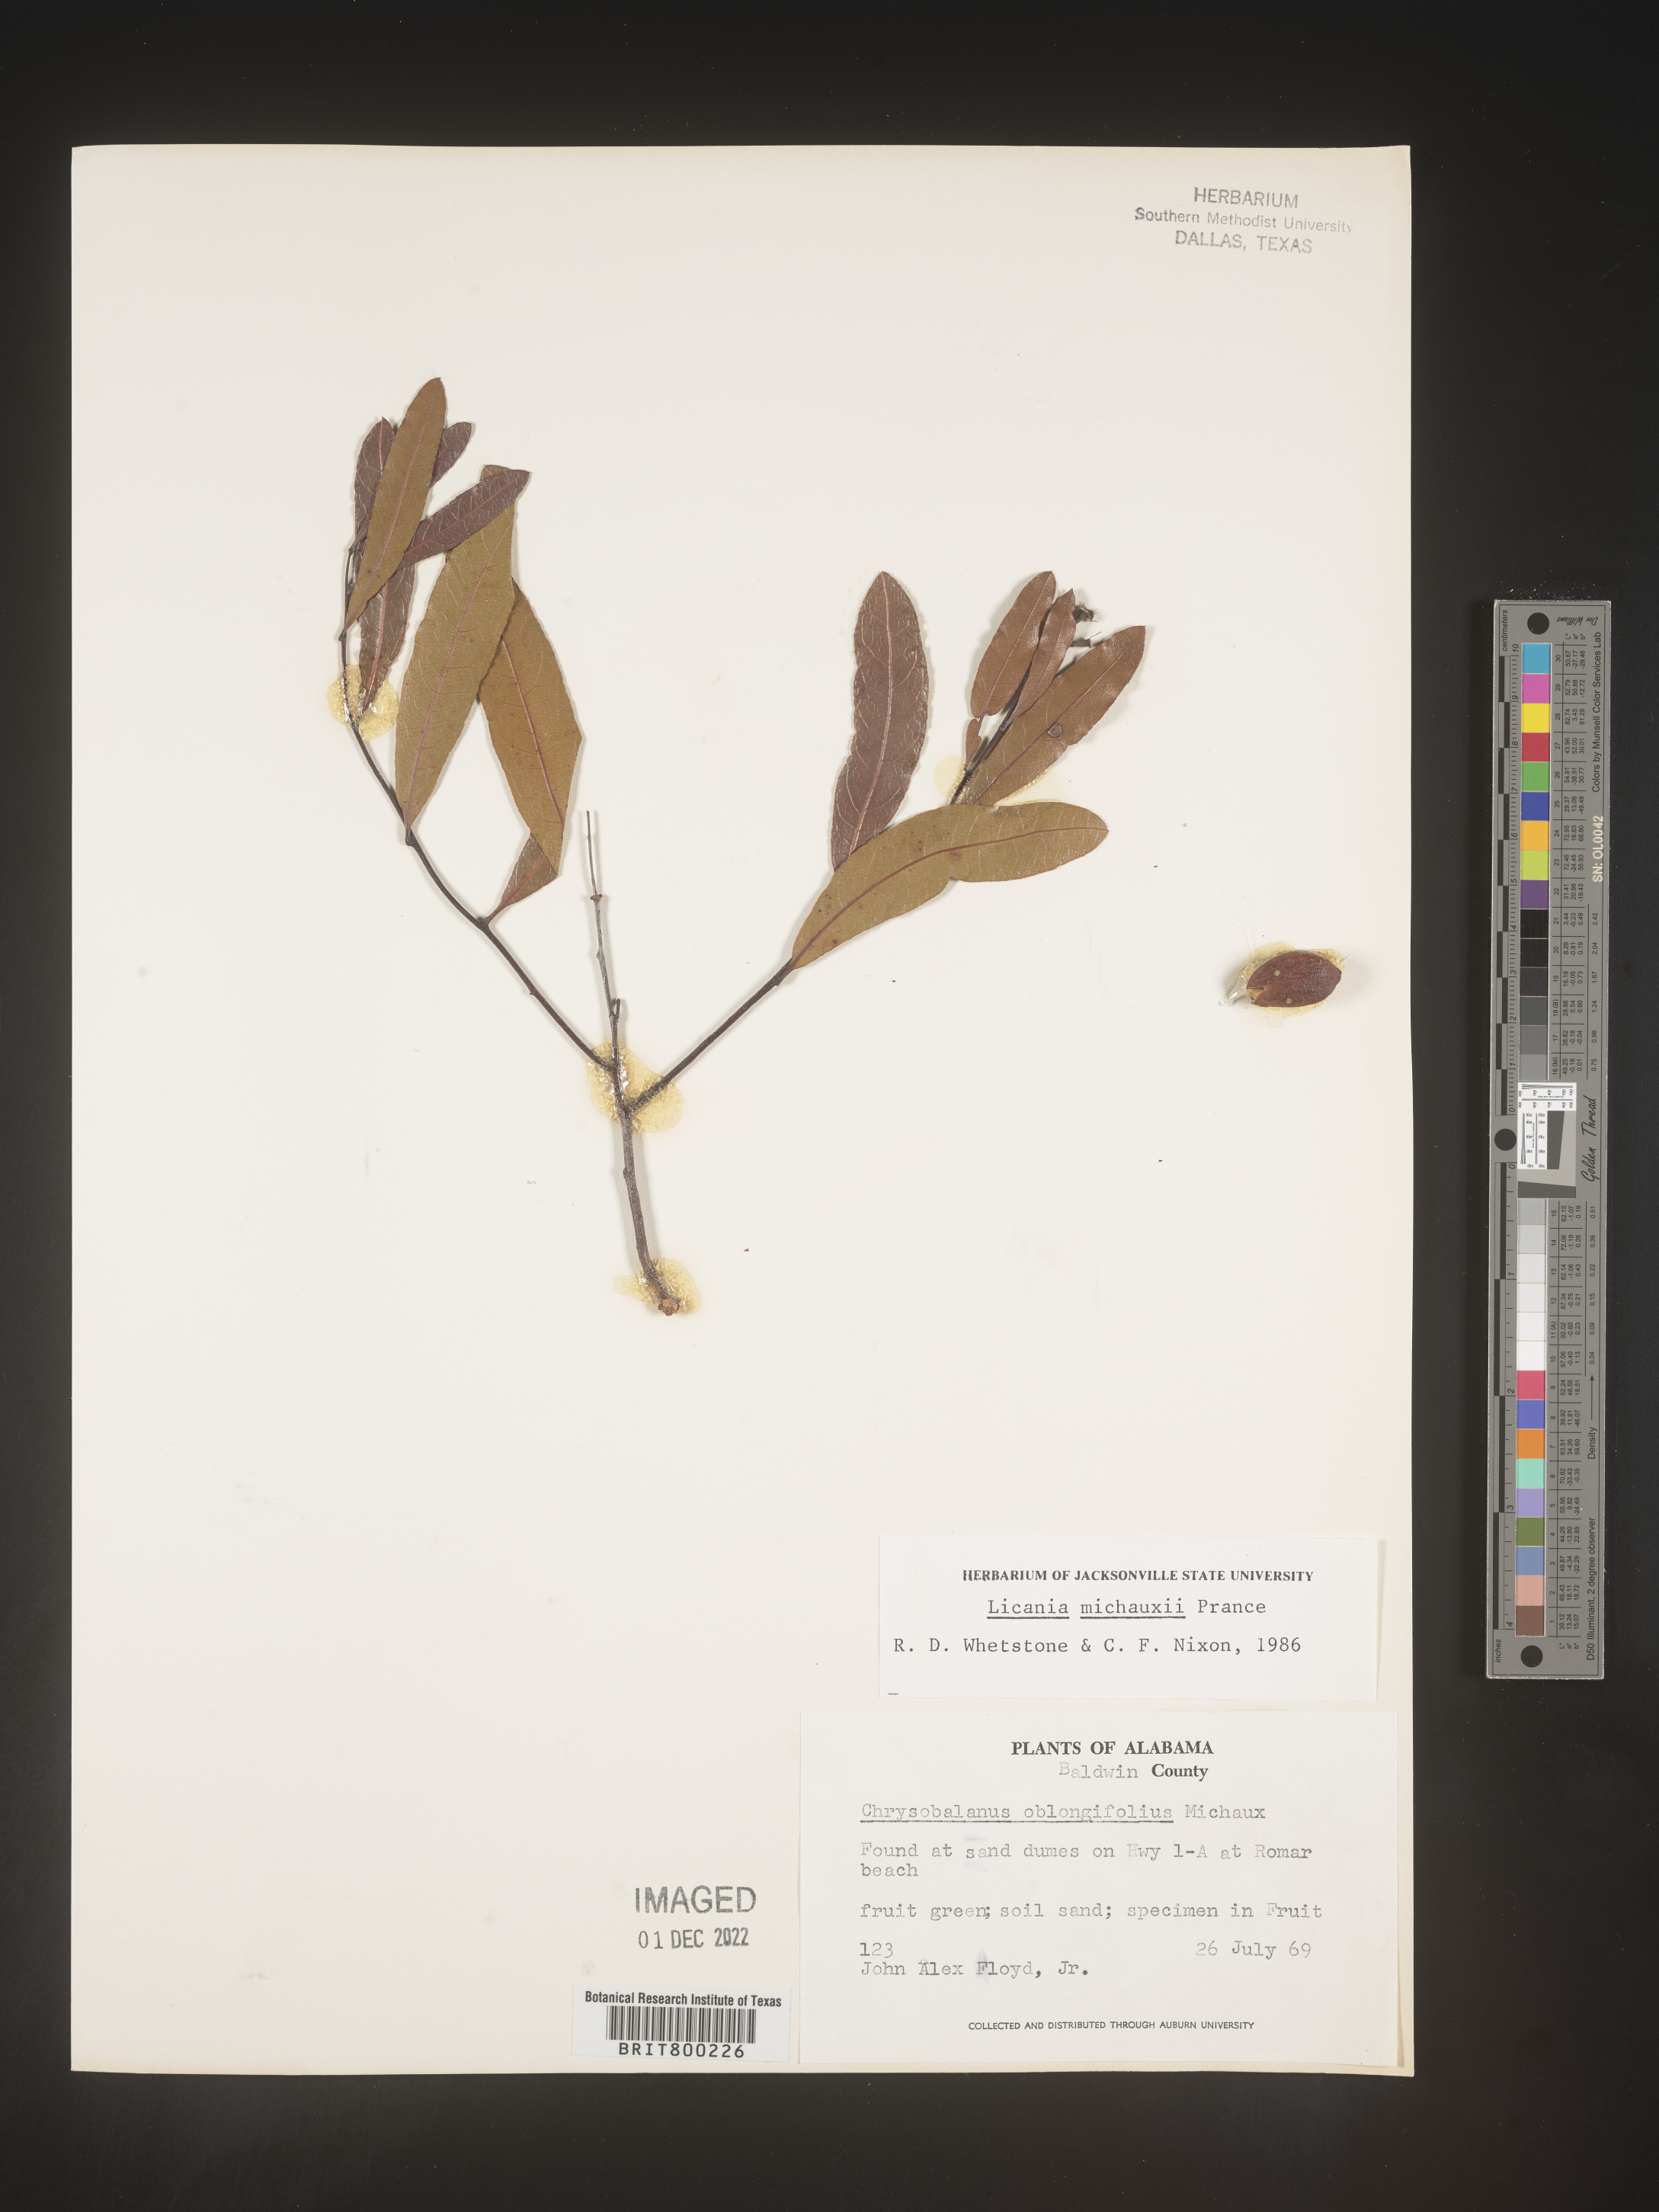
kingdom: Plantae
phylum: Tracheophyta
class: Magnoliopsida
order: Malpighiales
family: Chrysobalanaceae
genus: Geobalanus
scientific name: Geobalanus oblongifolius
